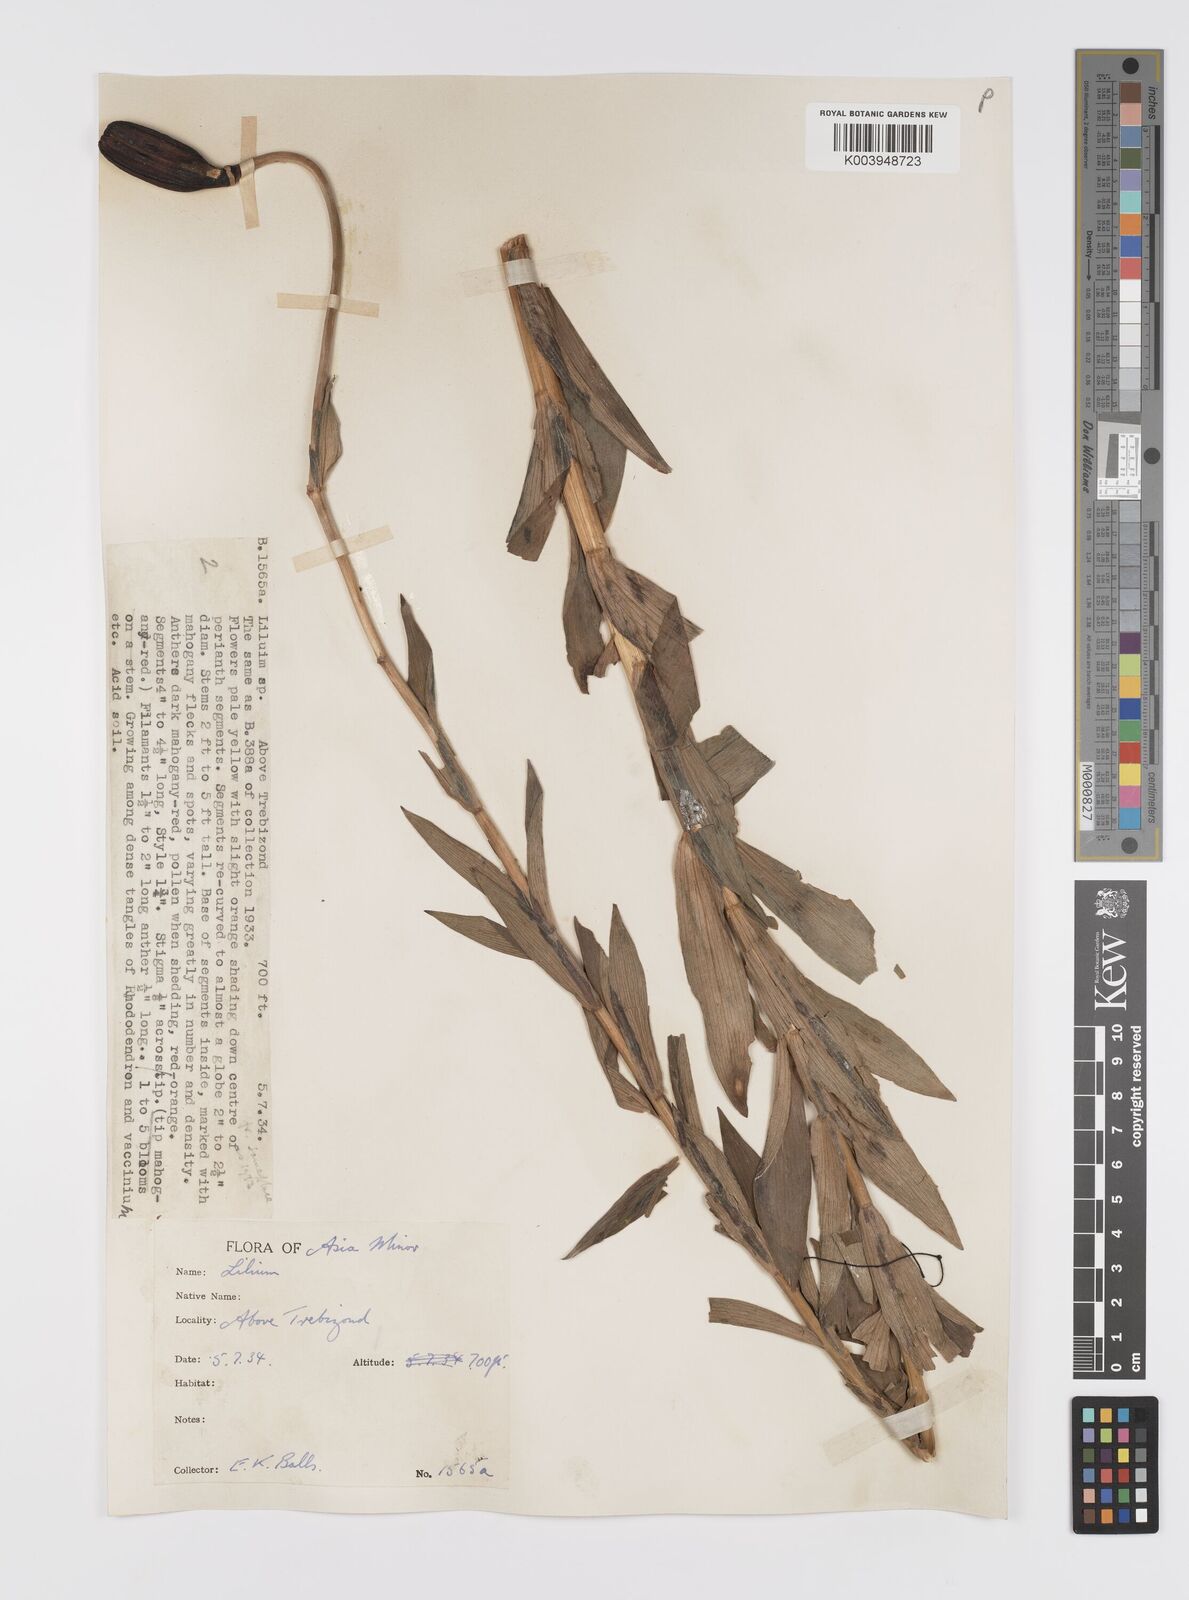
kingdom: Plantae
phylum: Tracheophyta
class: Liliopsida
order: Liliales
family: Liliaceae
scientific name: Liliaceae
